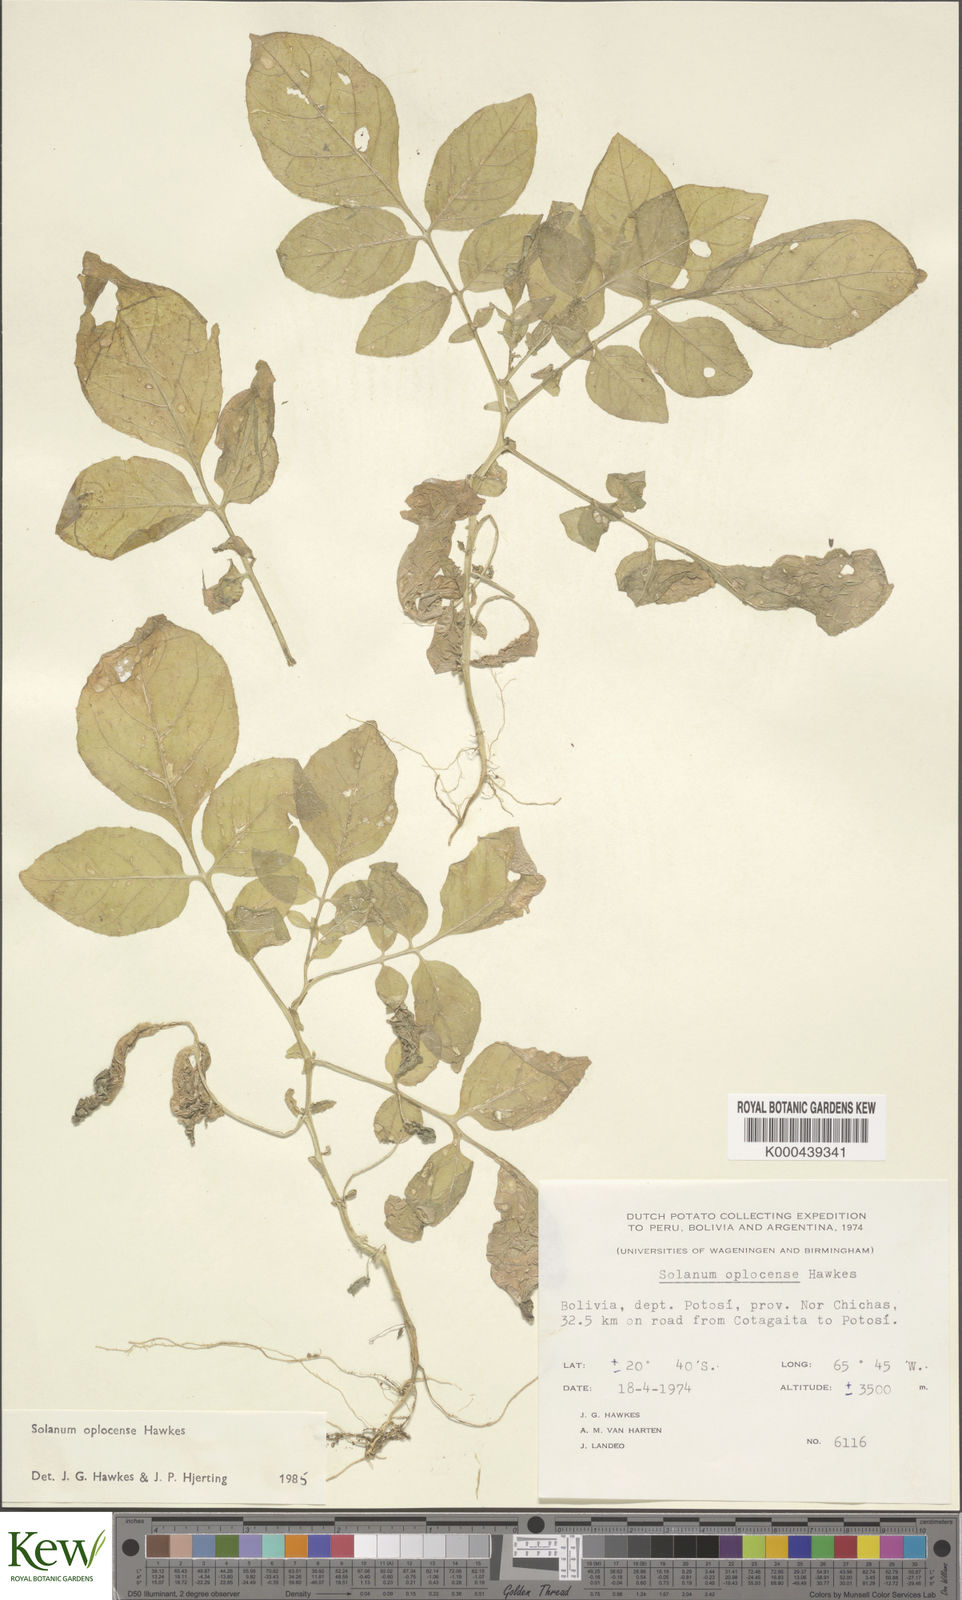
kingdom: Plantae
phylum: Tracheophyta
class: Magnoliopsida
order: Solanales
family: Solanaceae
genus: Solanum
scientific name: Solanum brevicaule
